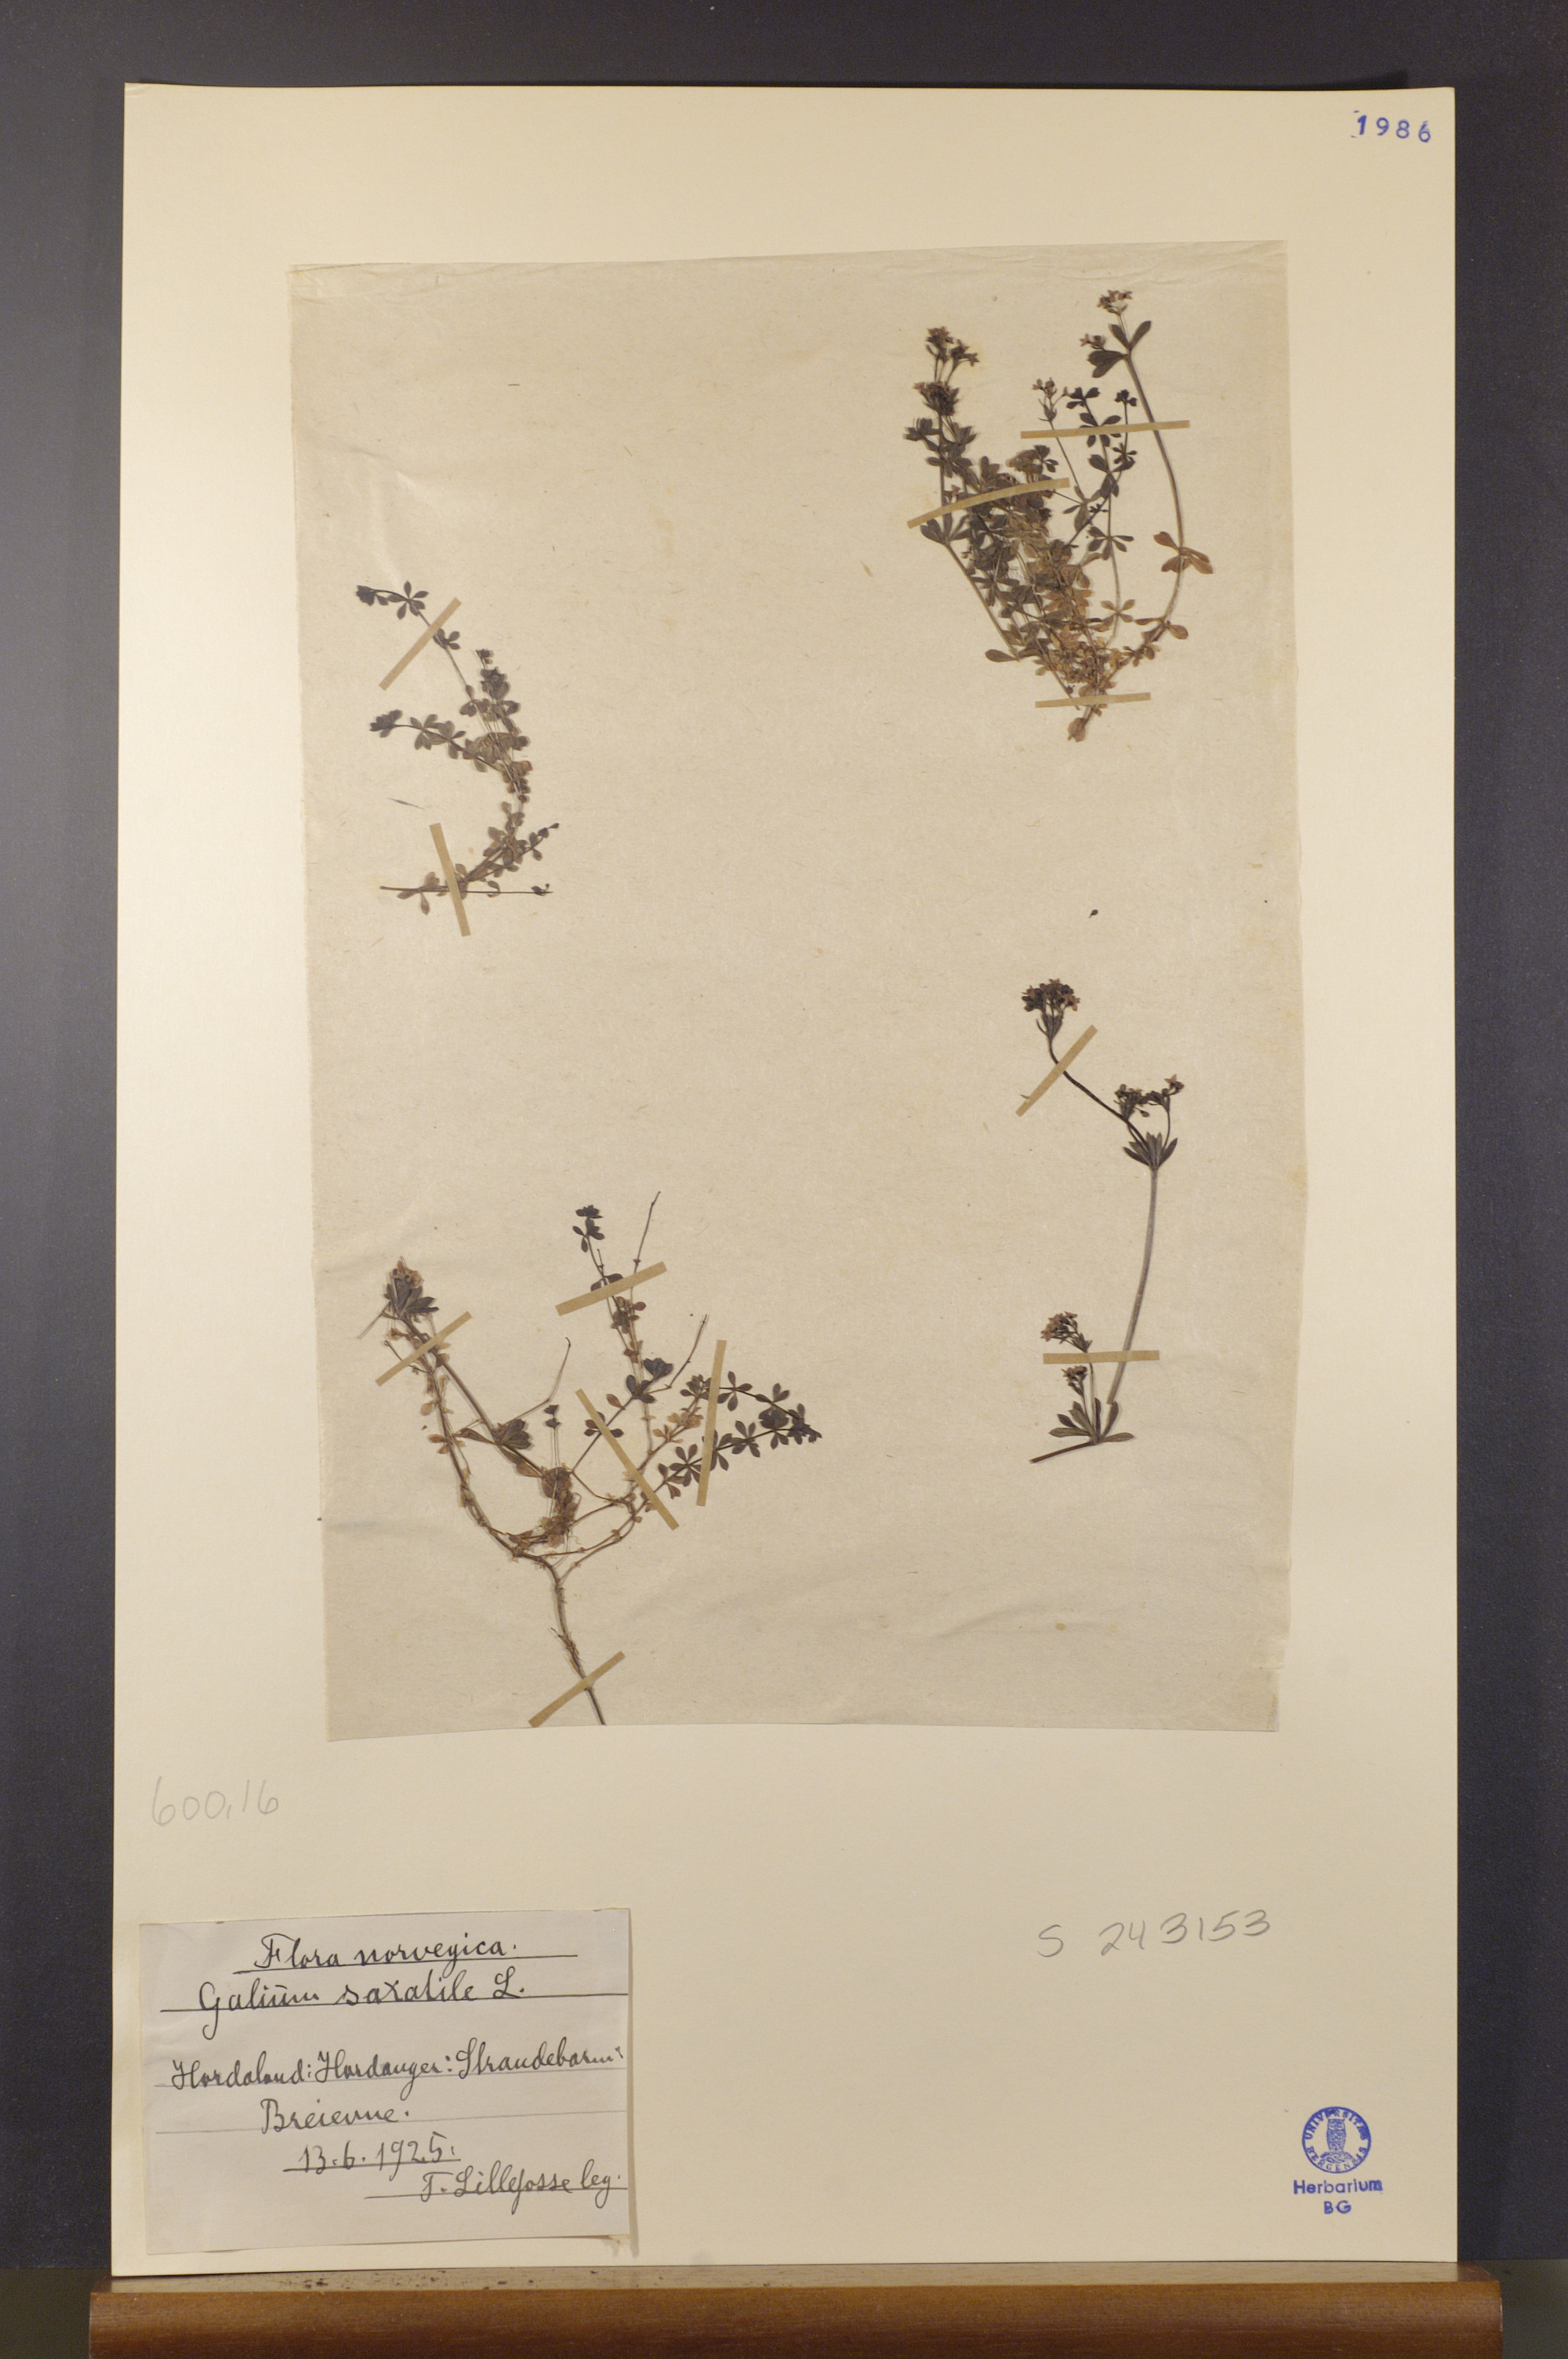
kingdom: Plantae
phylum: Tracheophyta
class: Magnoliopsida
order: Gentianales
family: Rubiaceae
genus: Galium
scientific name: Galium saxatile
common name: Heath bedstraw
